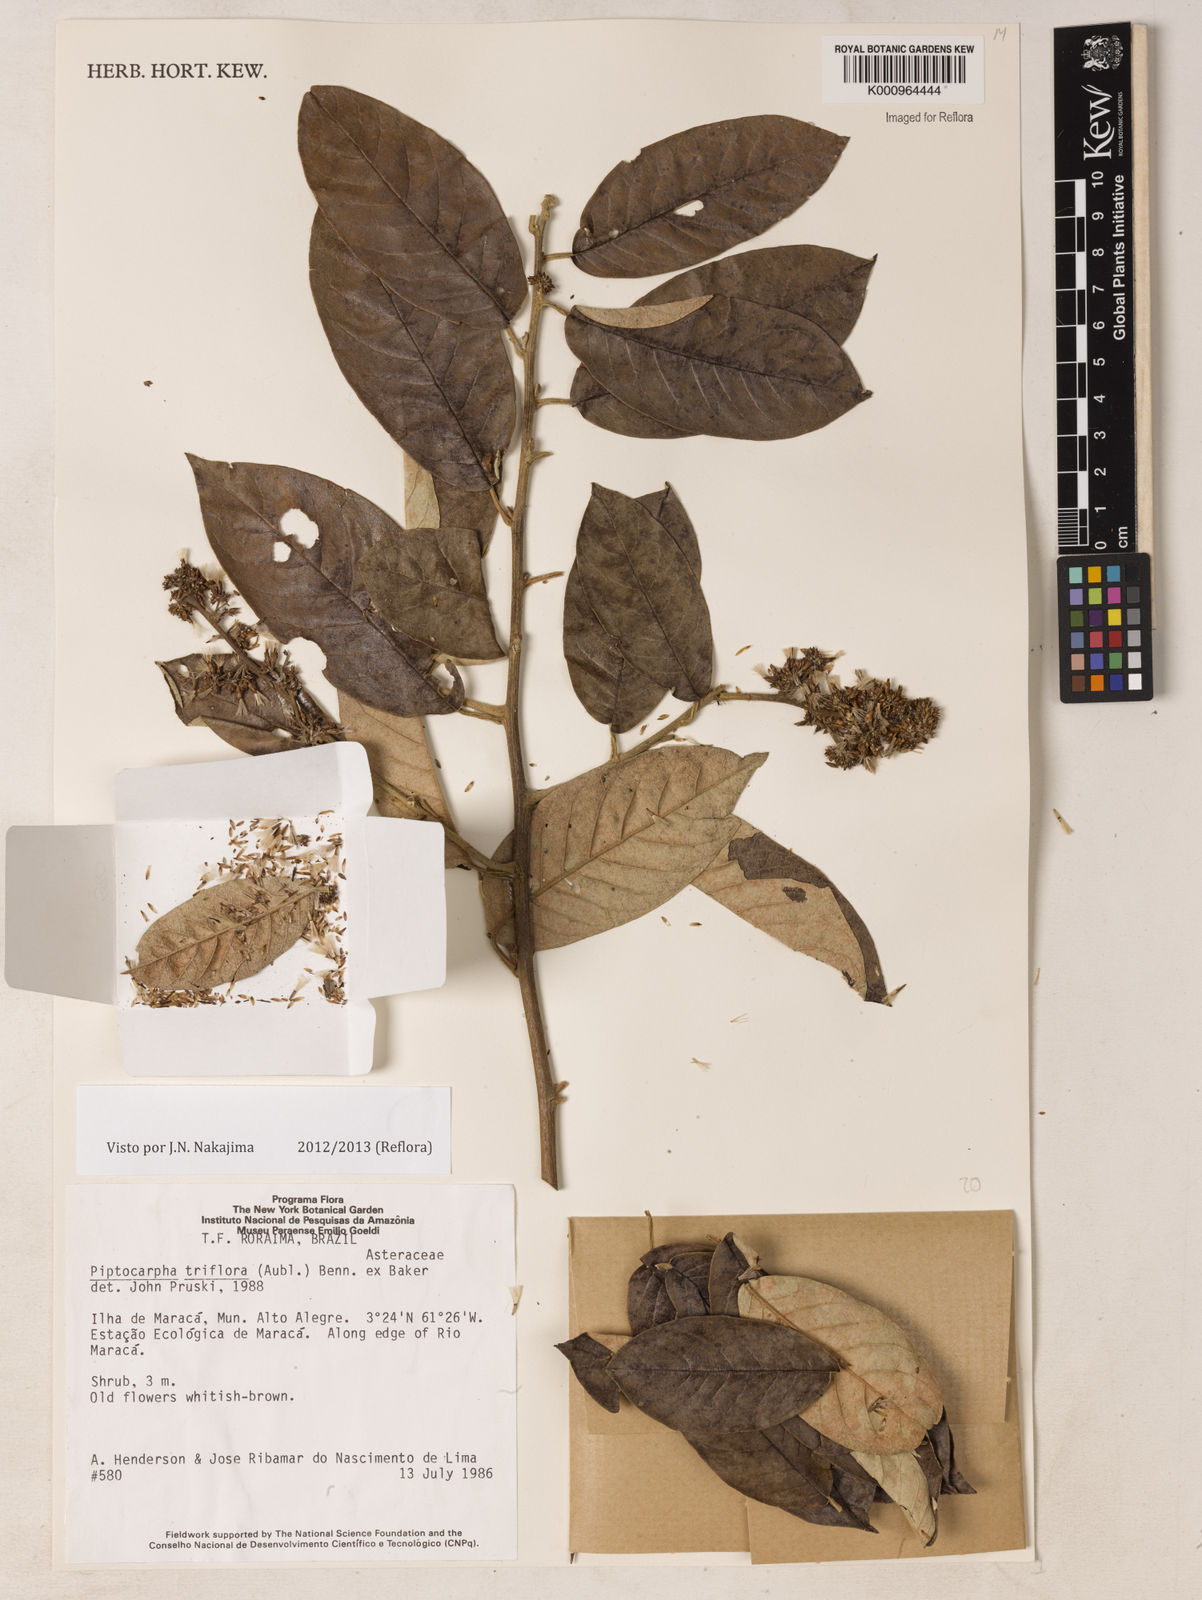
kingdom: Plantae
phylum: Tracheophyta
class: Magnoliopsida
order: Asterales
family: Asteraceae
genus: Piptocarpha
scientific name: Piptocarpha triflora
